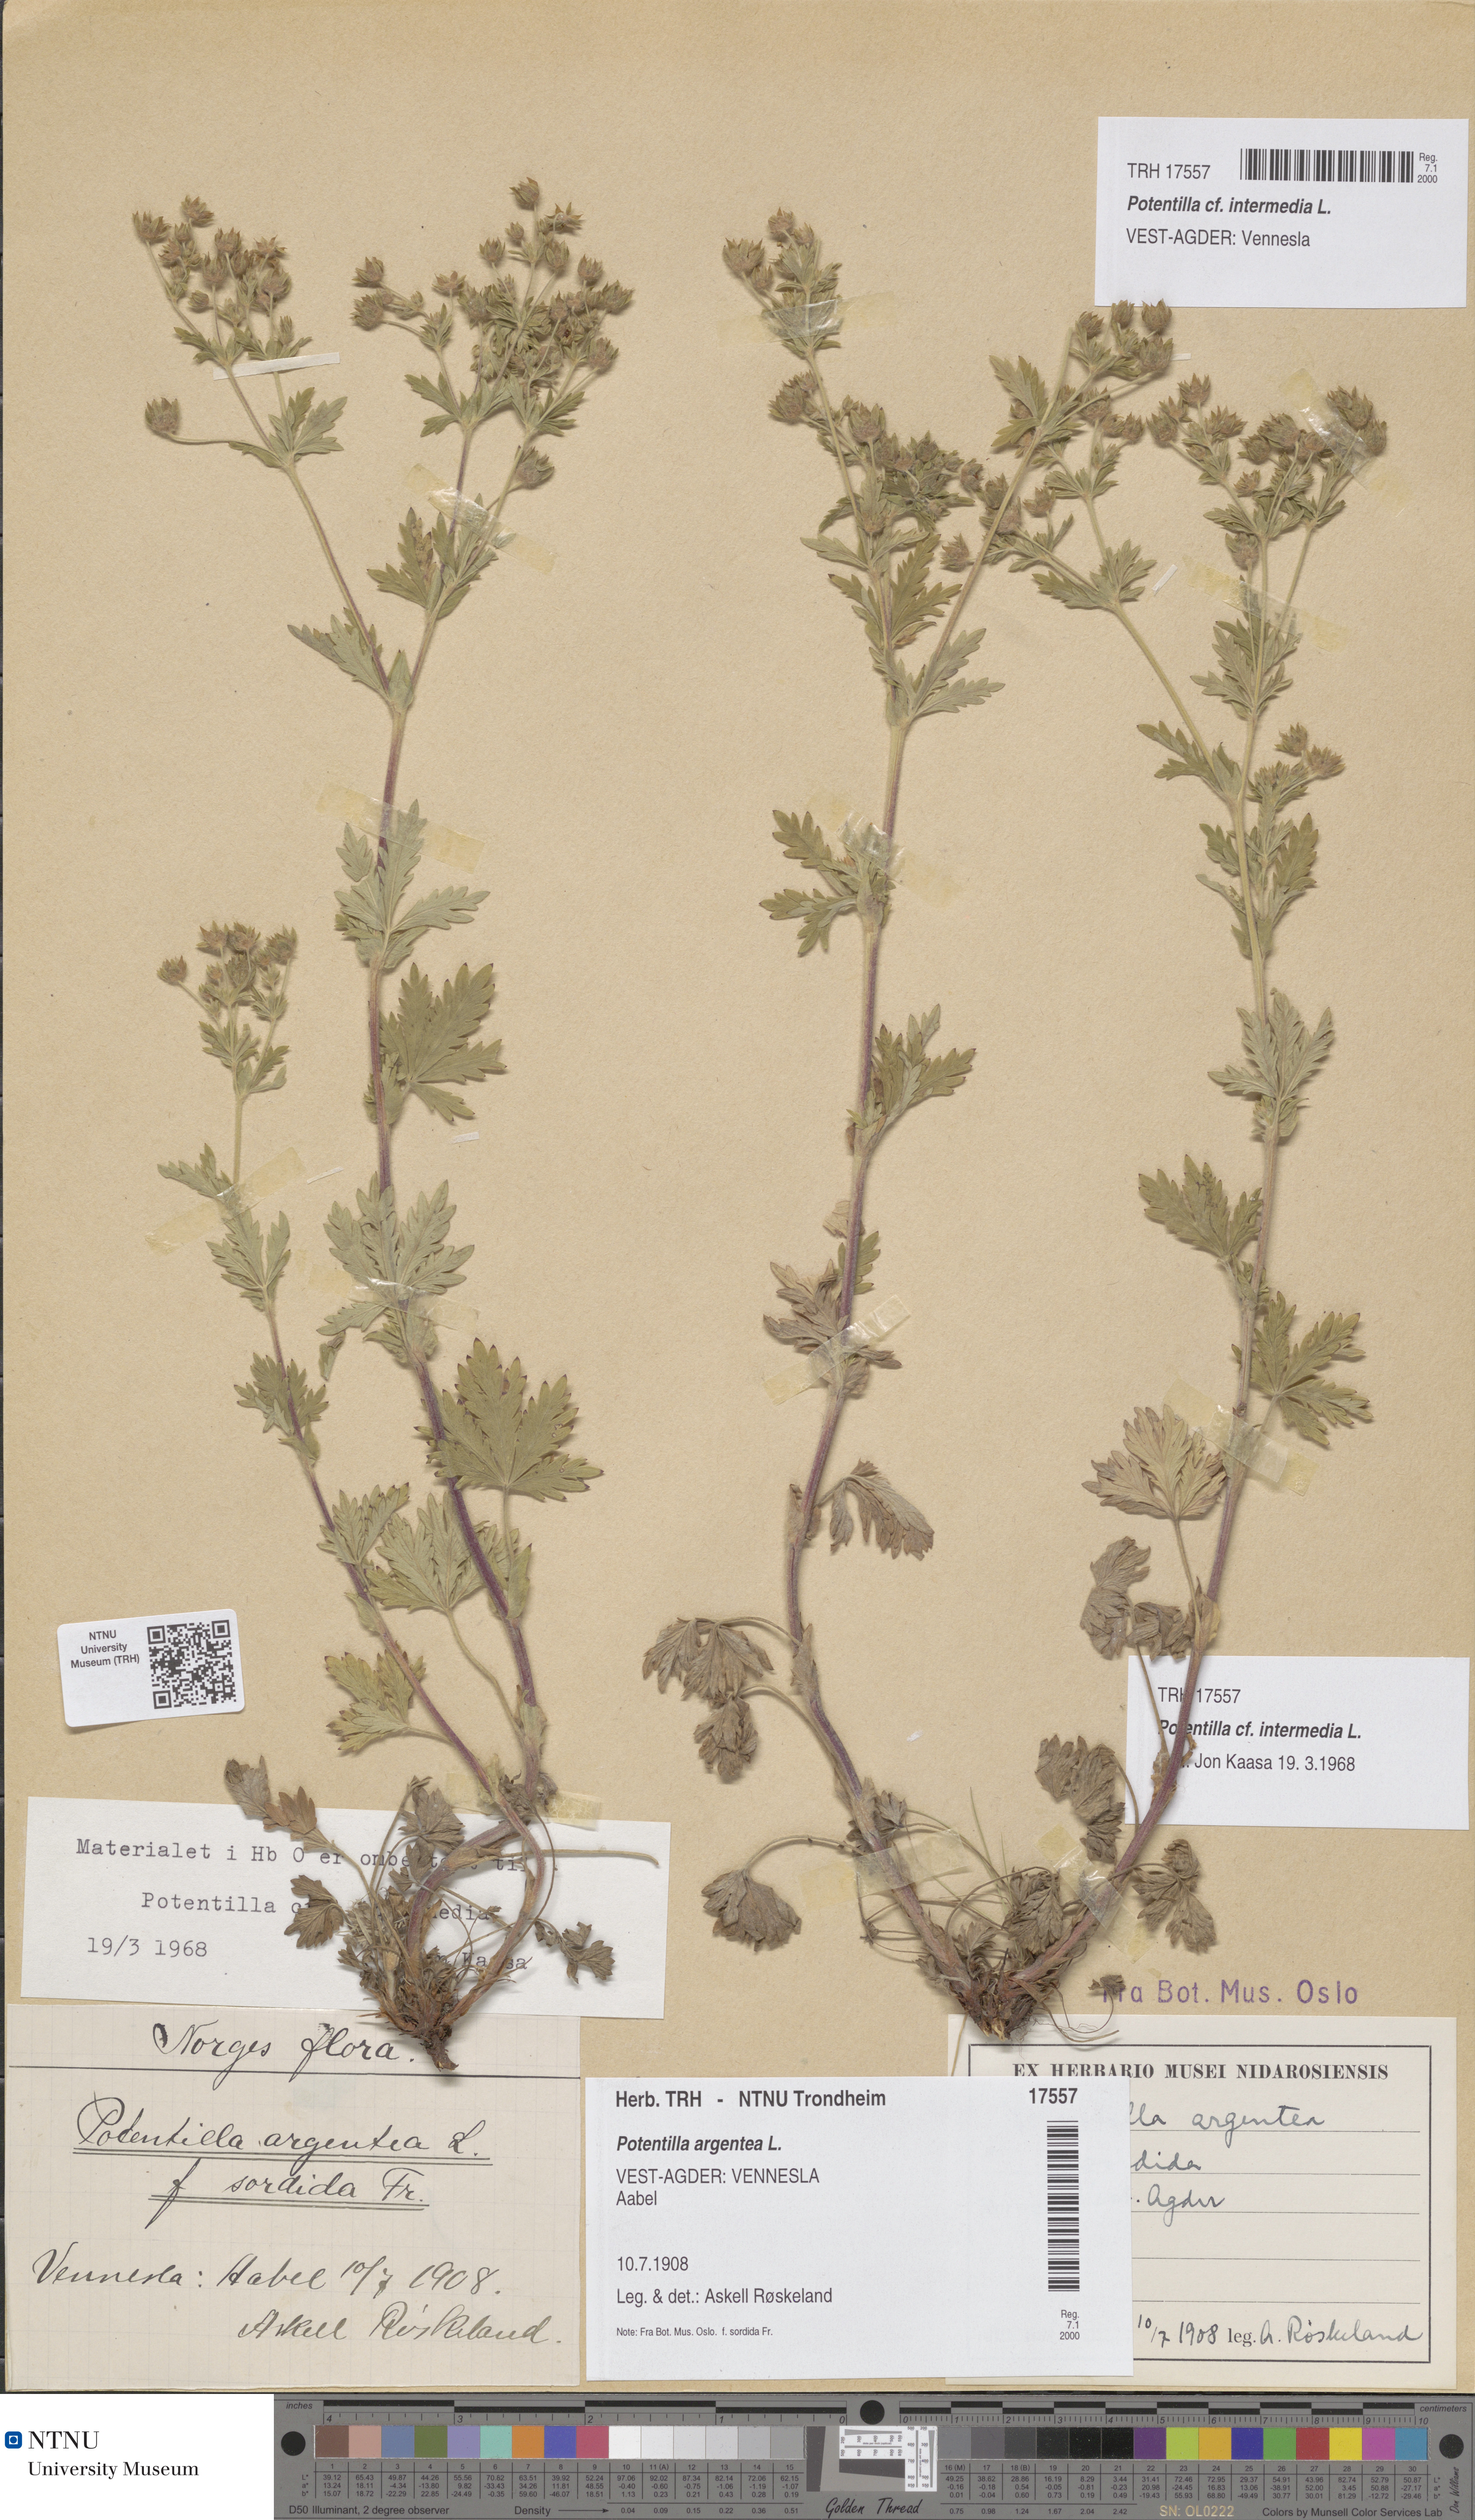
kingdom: Plantae
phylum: Tracheophyta
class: Magnoliopsida
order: Rosales
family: Rosaceae
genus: Potentilla
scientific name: Potentilla intermedia
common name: Downy cinquefoil
